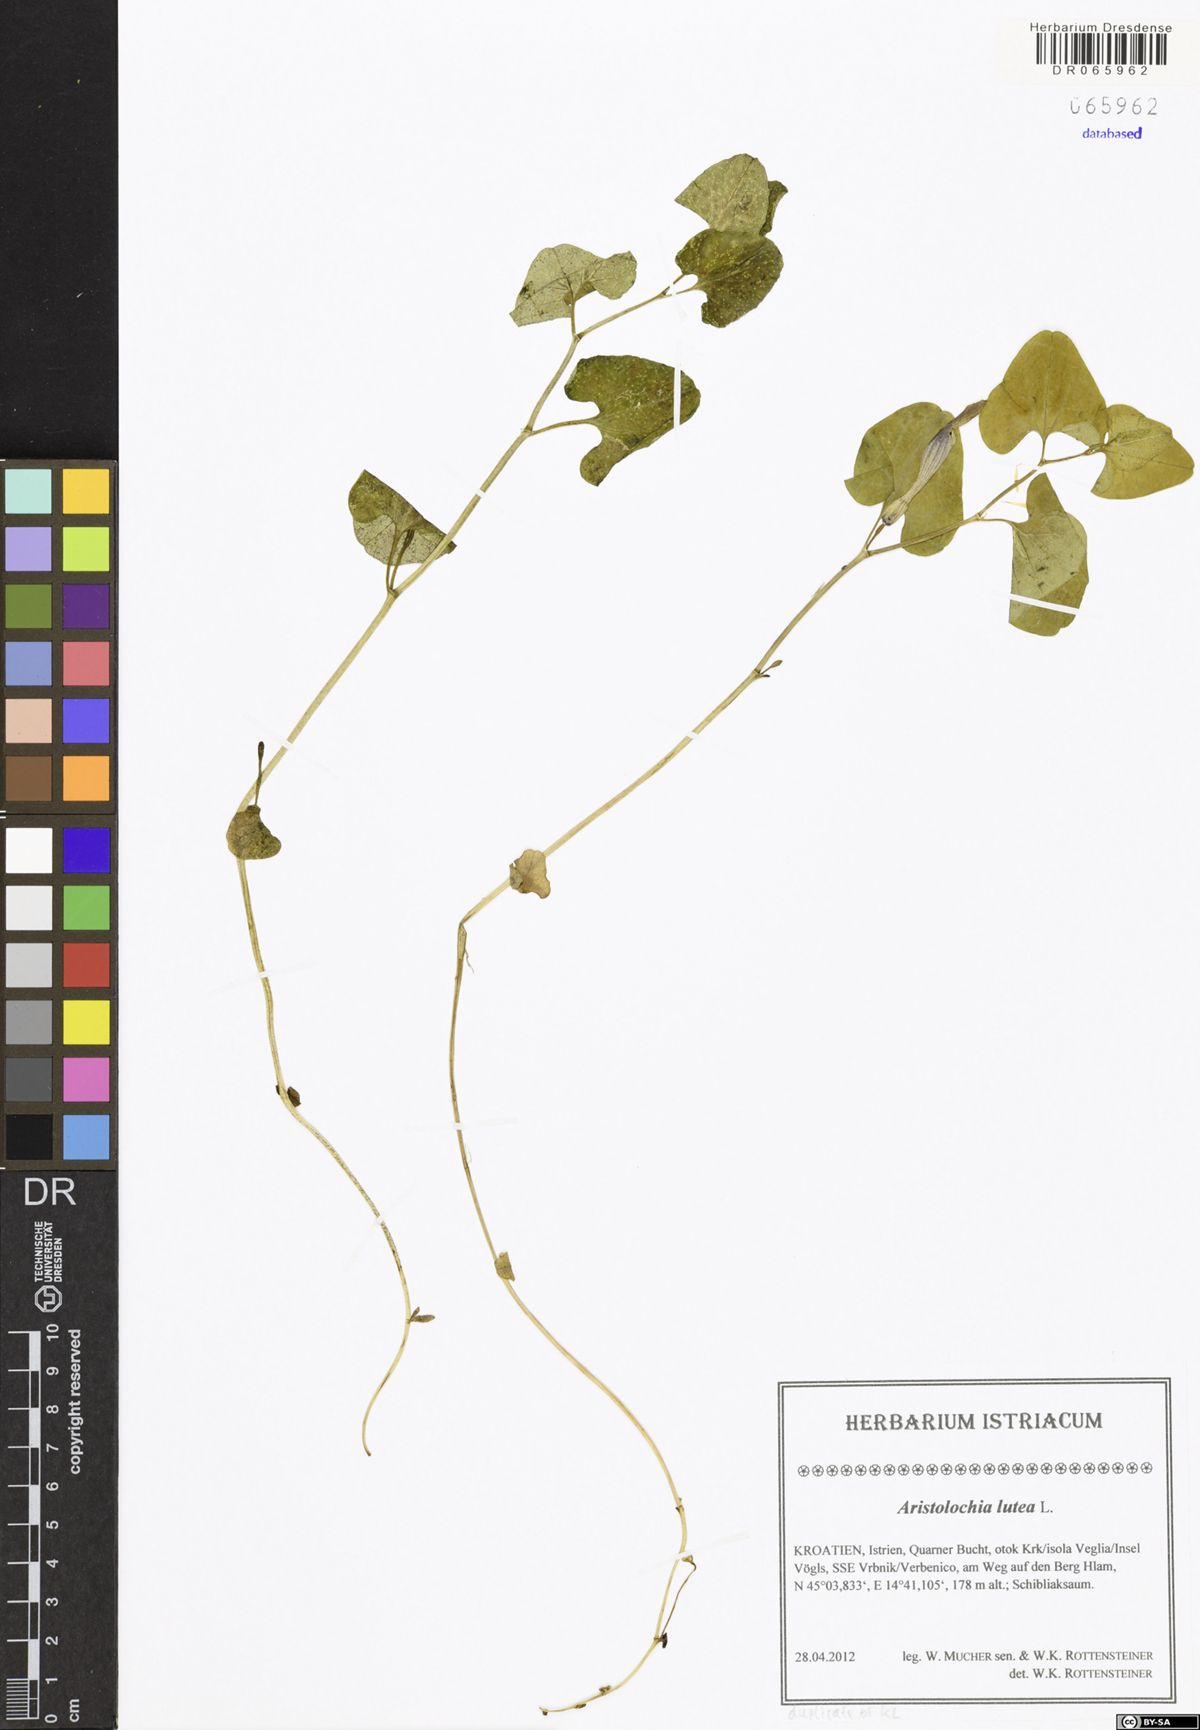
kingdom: Plantae
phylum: Tracheophyta
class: Magnoliopsida
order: Piperales
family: Aristolochiaceae
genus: Aristolochia
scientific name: Aristolochia lutea
